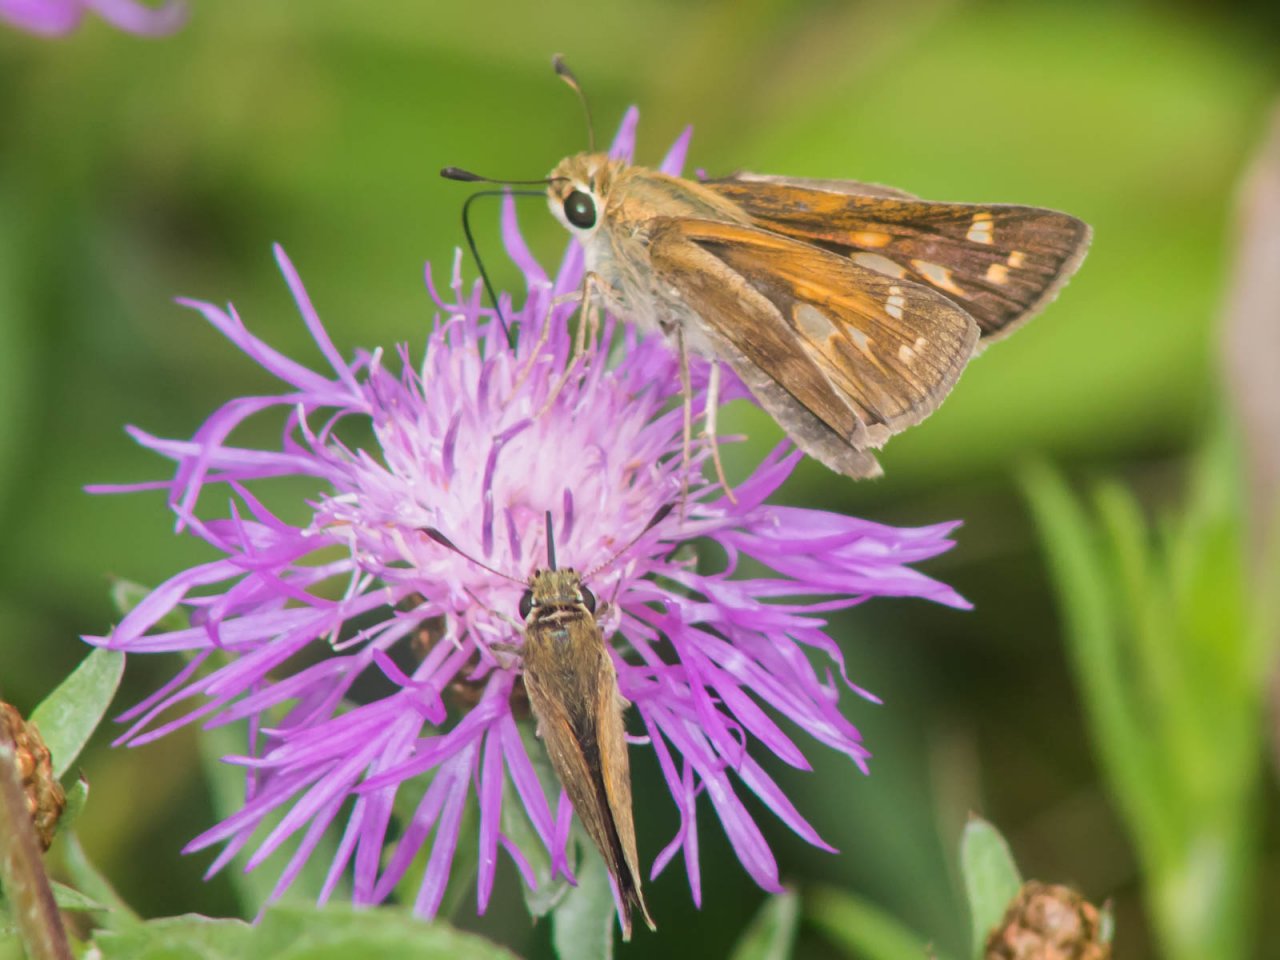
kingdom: Animalia
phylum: Arthropoda
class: Insecta
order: Lepidoptera
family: Hesperiidae
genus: Atalopedes
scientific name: Atalopedes campestris
